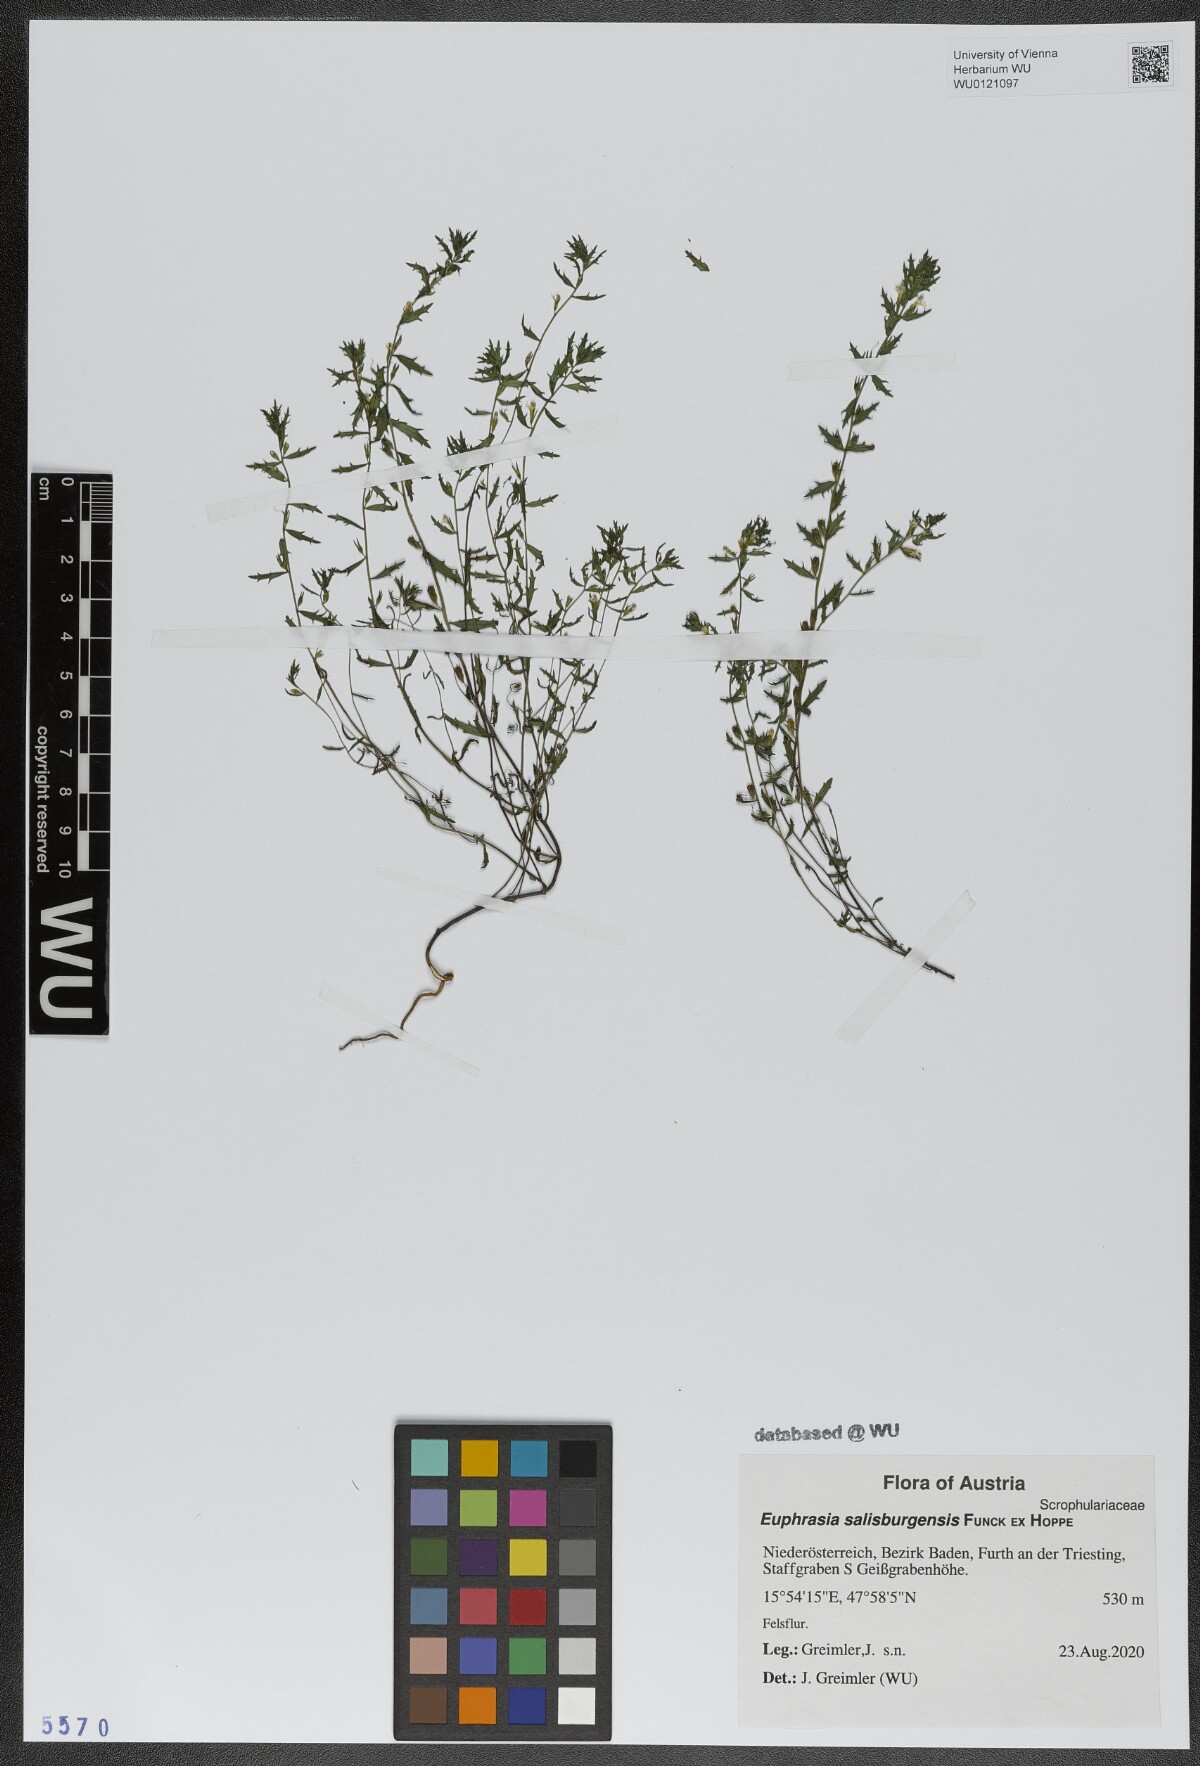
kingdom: Plantae
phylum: Tracheophyta
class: Magnoliopsida
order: Lamiales
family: Orobanchaceae
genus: Euphrasia
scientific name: Euphrasia salisburgensis
